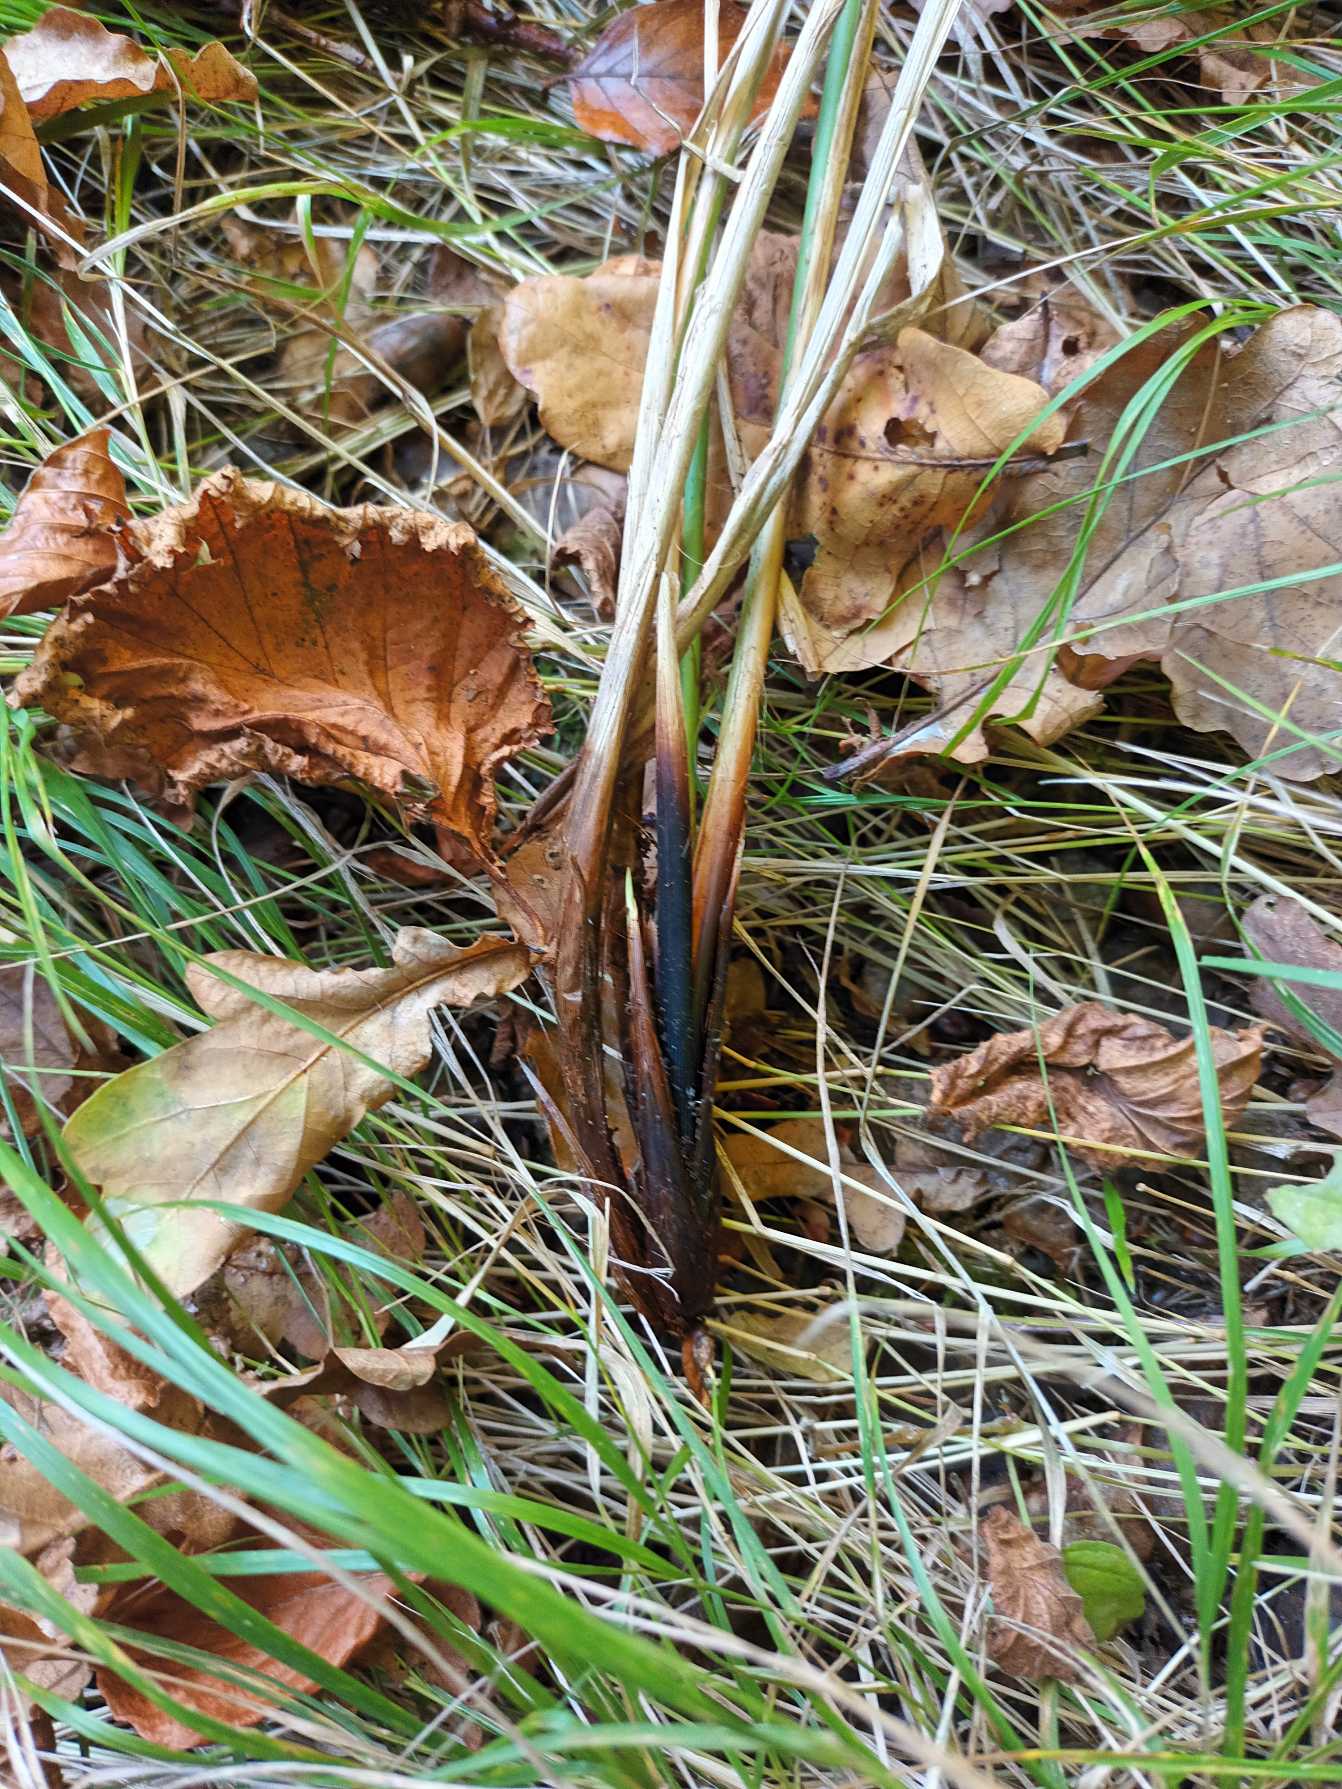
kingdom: Plantae
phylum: Tracheophyta
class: Liliopsida
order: Poales
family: Cyperaceae
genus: Carex
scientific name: Carex paniculata
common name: Top-star
